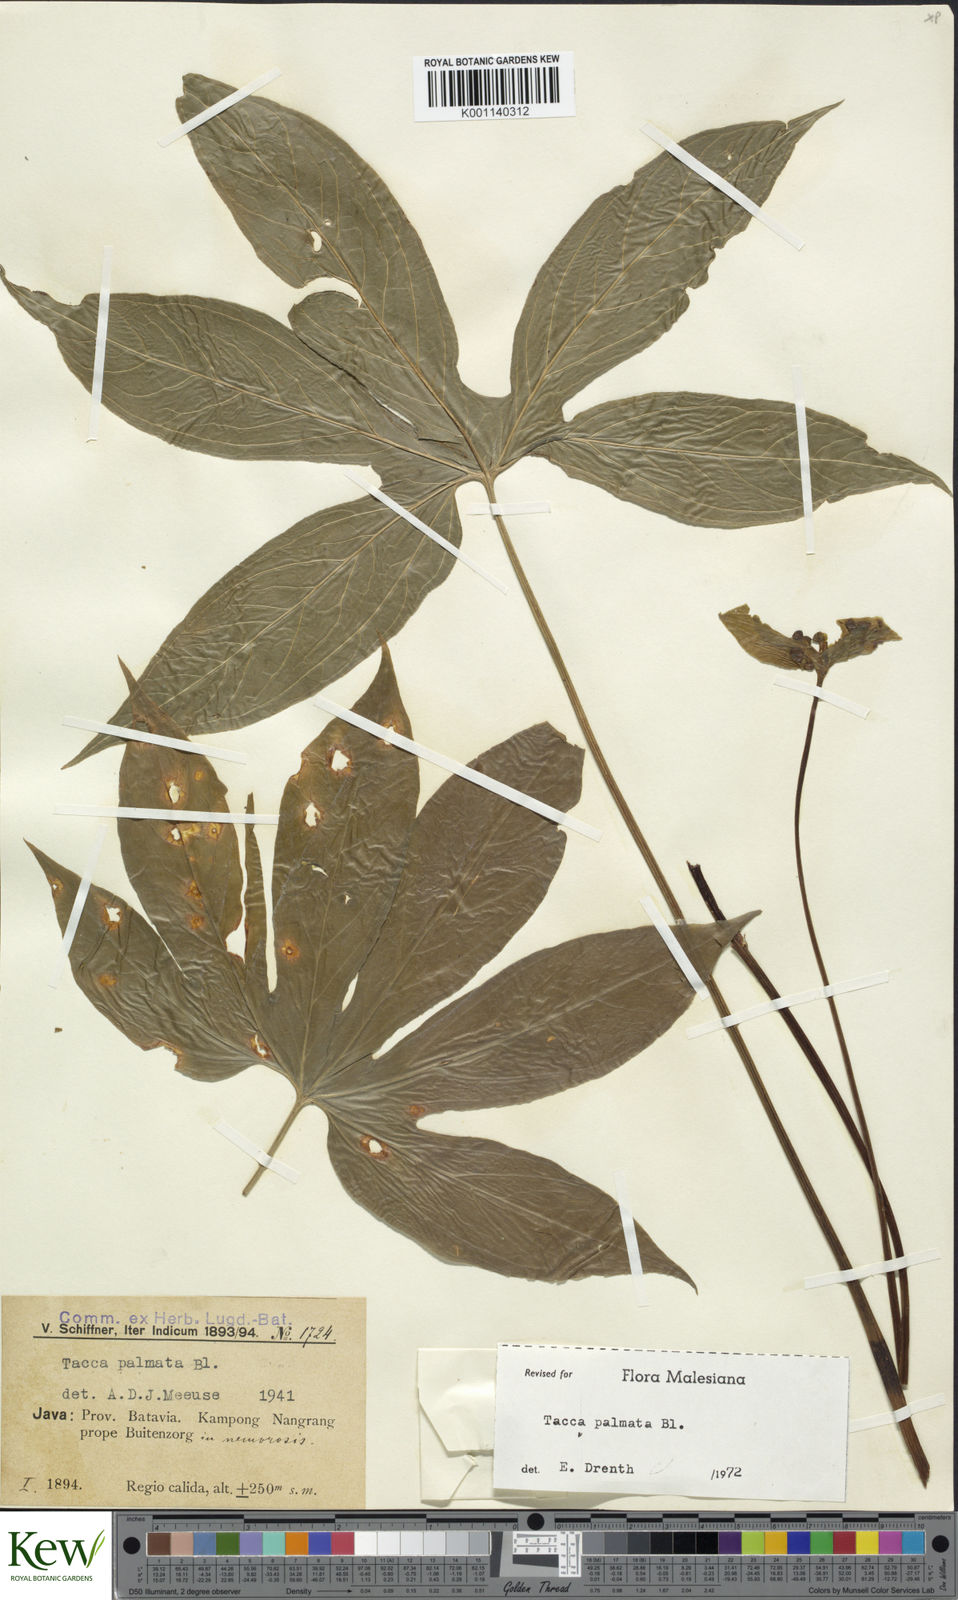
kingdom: Plantae
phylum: Tracheophyta
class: Liliopsida
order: Dioscoreales
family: Dioscoreaceae
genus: Tacca
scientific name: Tacca palmata
